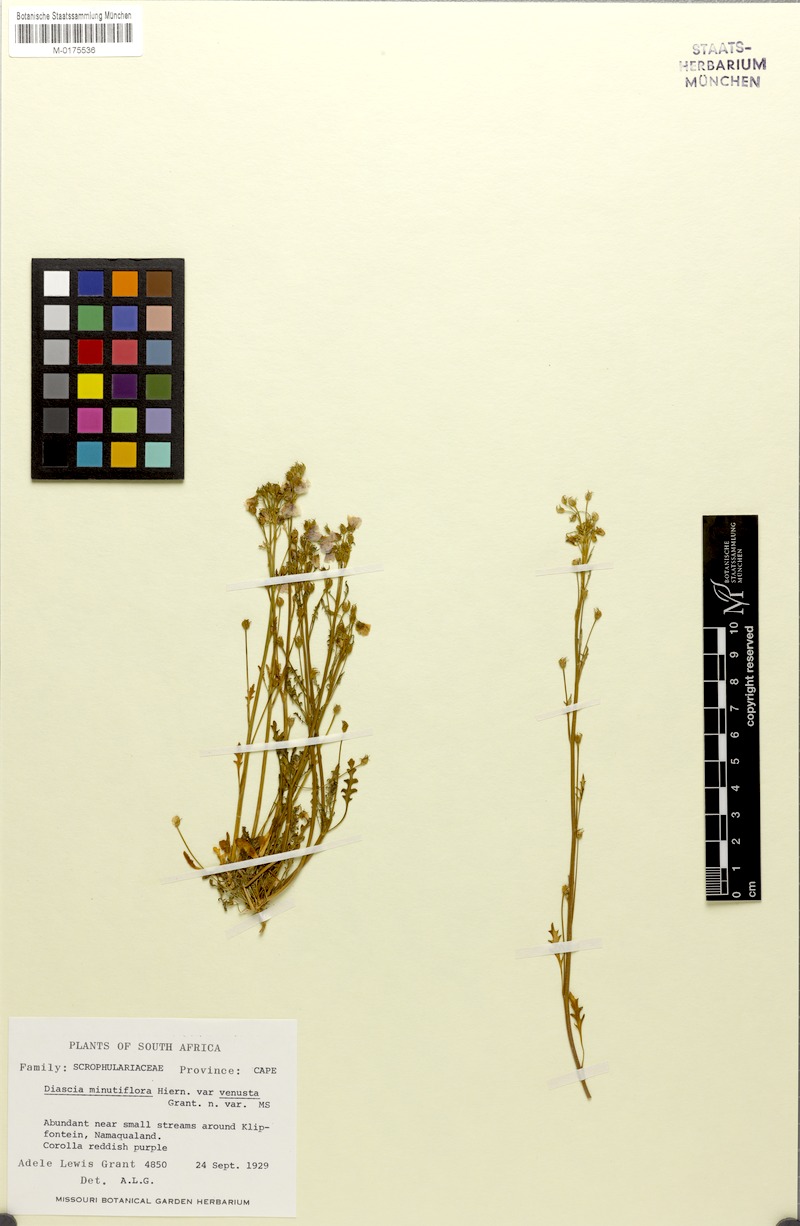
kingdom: Plantae
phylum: Tracheophyta
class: Magnoliopsida
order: Lamiales
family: Scrophulariaceae
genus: Diascia
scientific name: Diascia minutiflora
